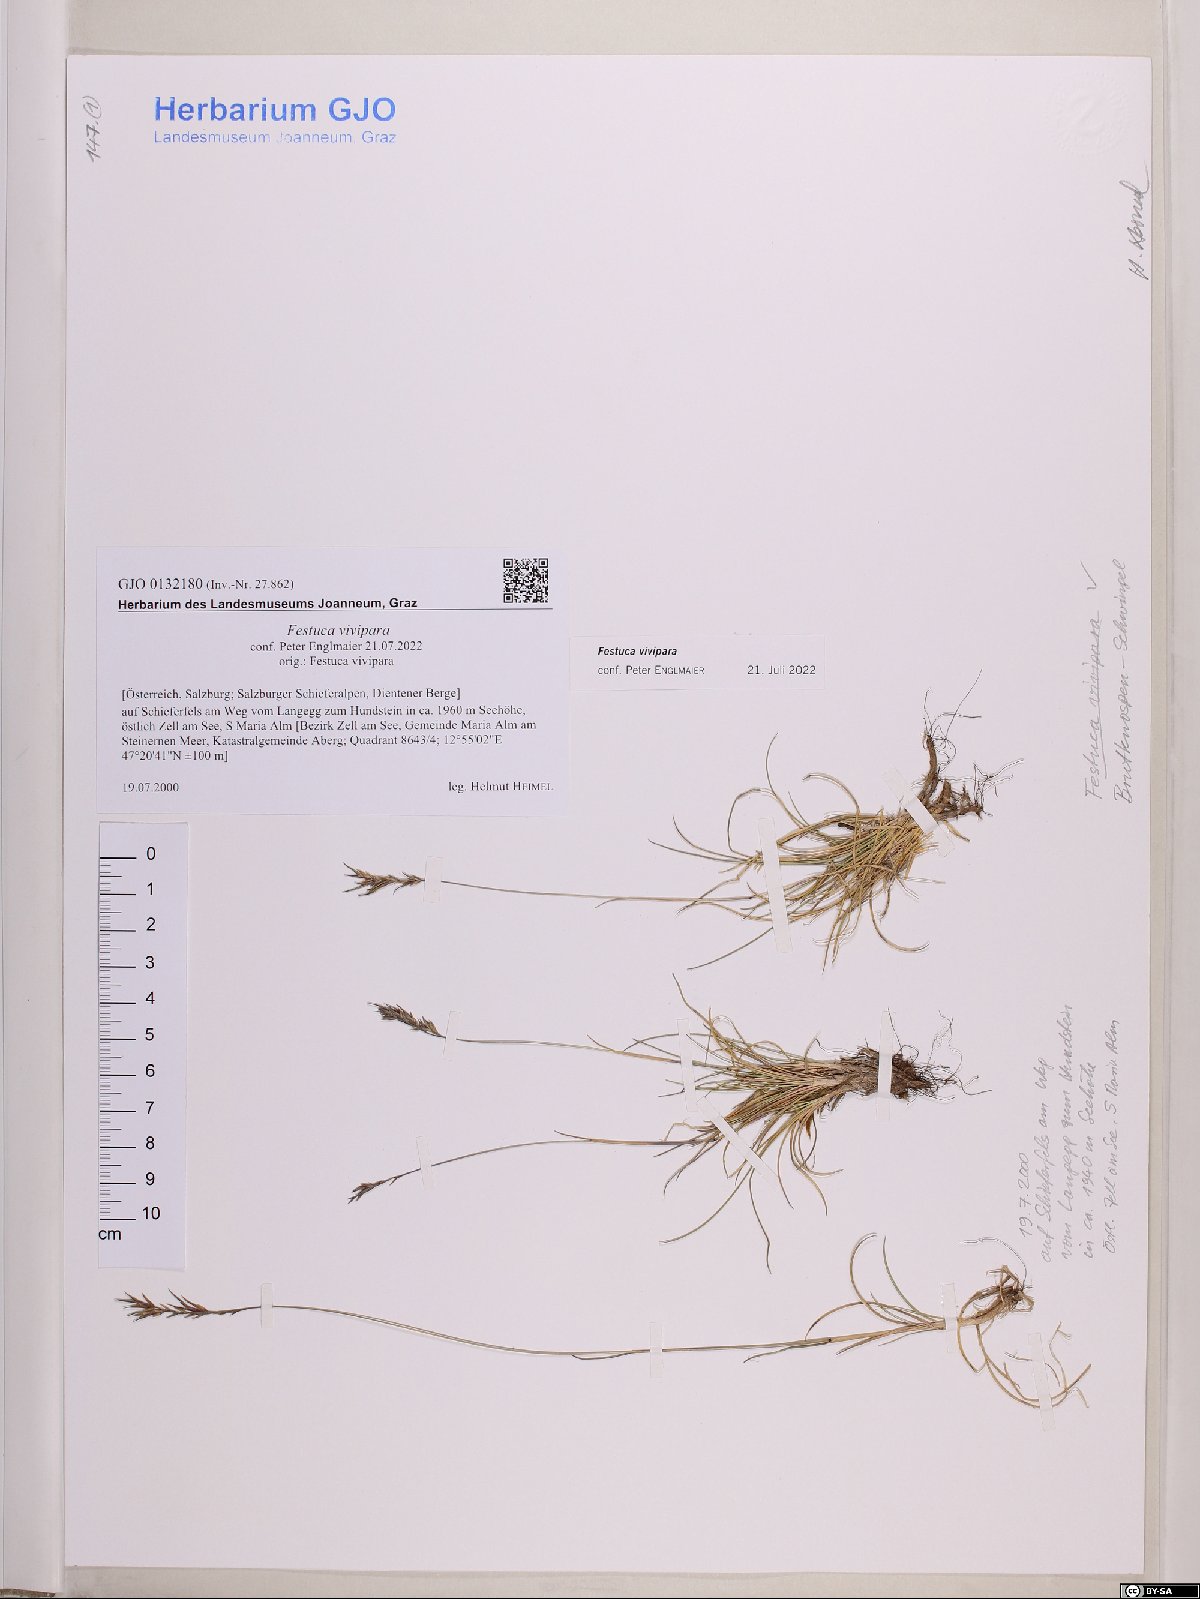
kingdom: Plantae
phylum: Tracheophyta
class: Liliopsida
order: Poales
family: Poaceae
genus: Festuca
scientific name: Festuca vivipara
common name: Viviparous sheep's-fescue
